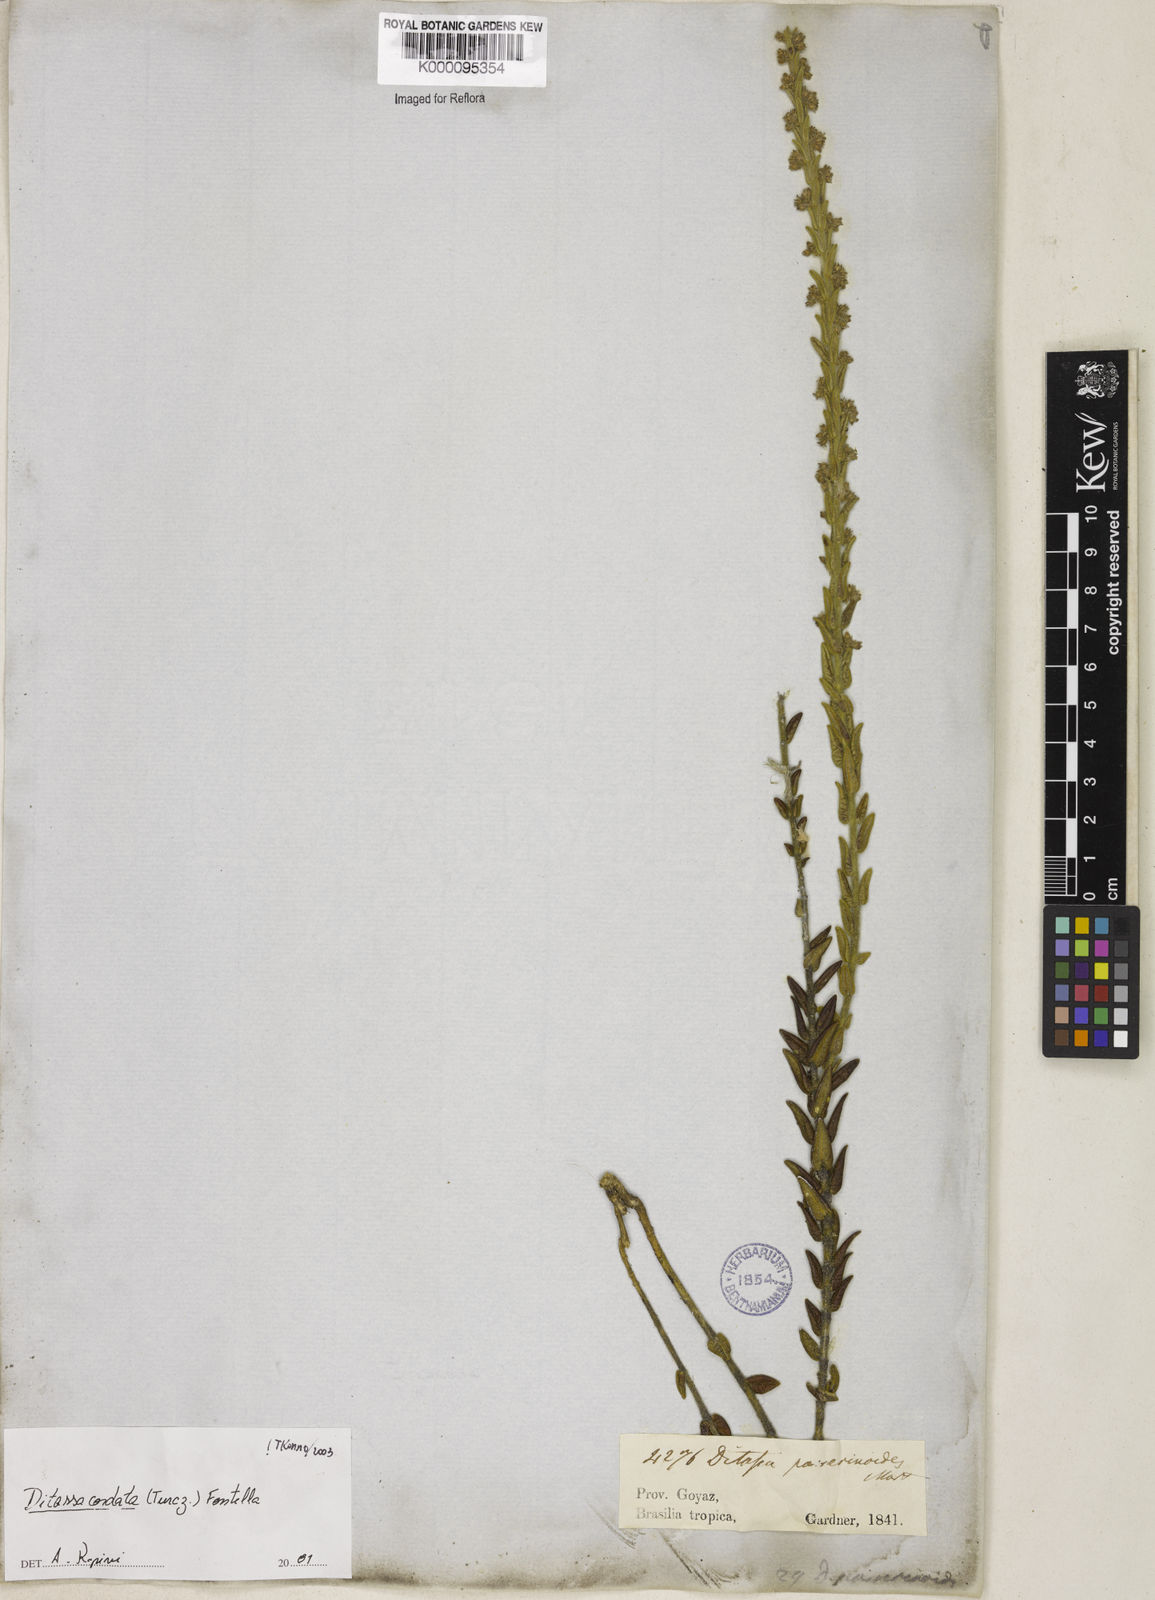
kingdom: Plantae
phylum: Tracheophyta
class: Magnoliopsida
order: Gentianales
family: Apocynaceae
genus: Minaria
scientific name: Minaria cordata
